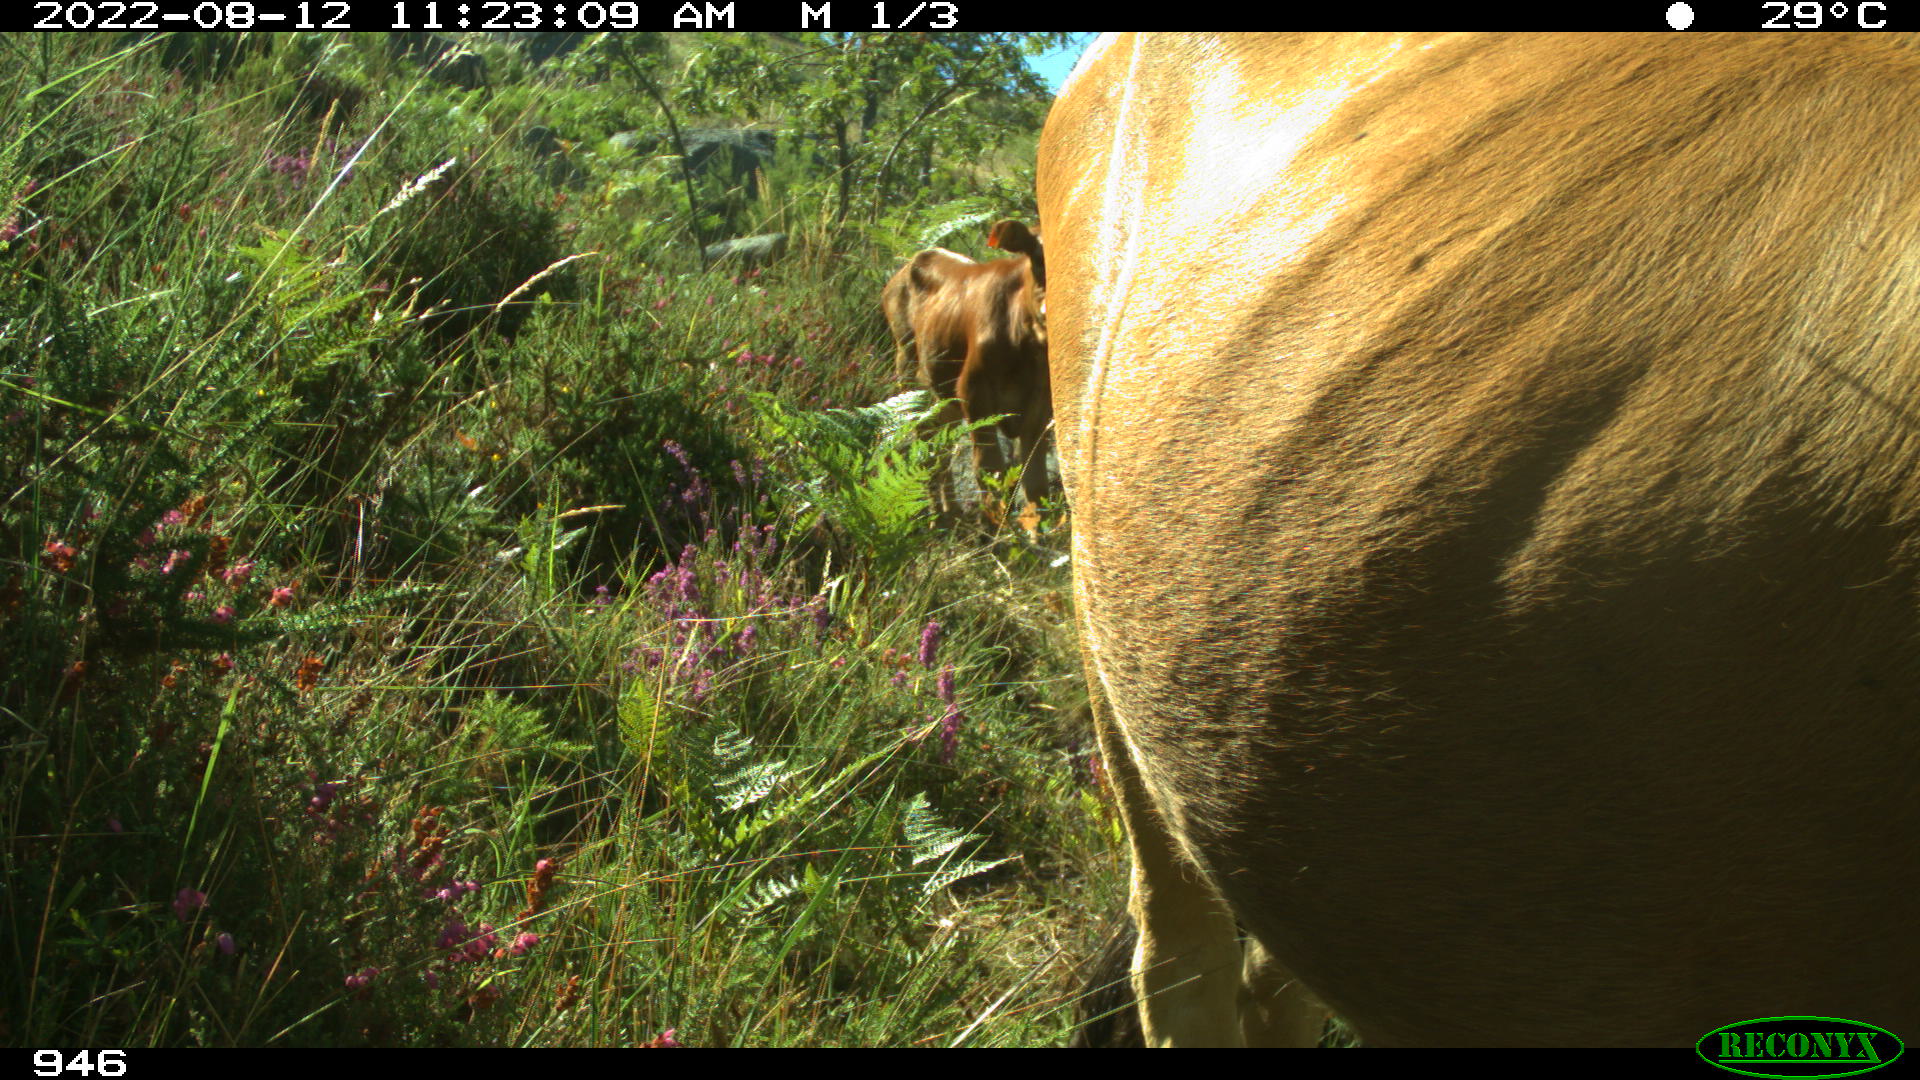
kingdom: Animalia
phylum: Chordata
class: Mammalia
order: Artiodactyla
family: Bovidae
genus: Bos
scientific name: Bos taurus
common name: Domesticated cattle
